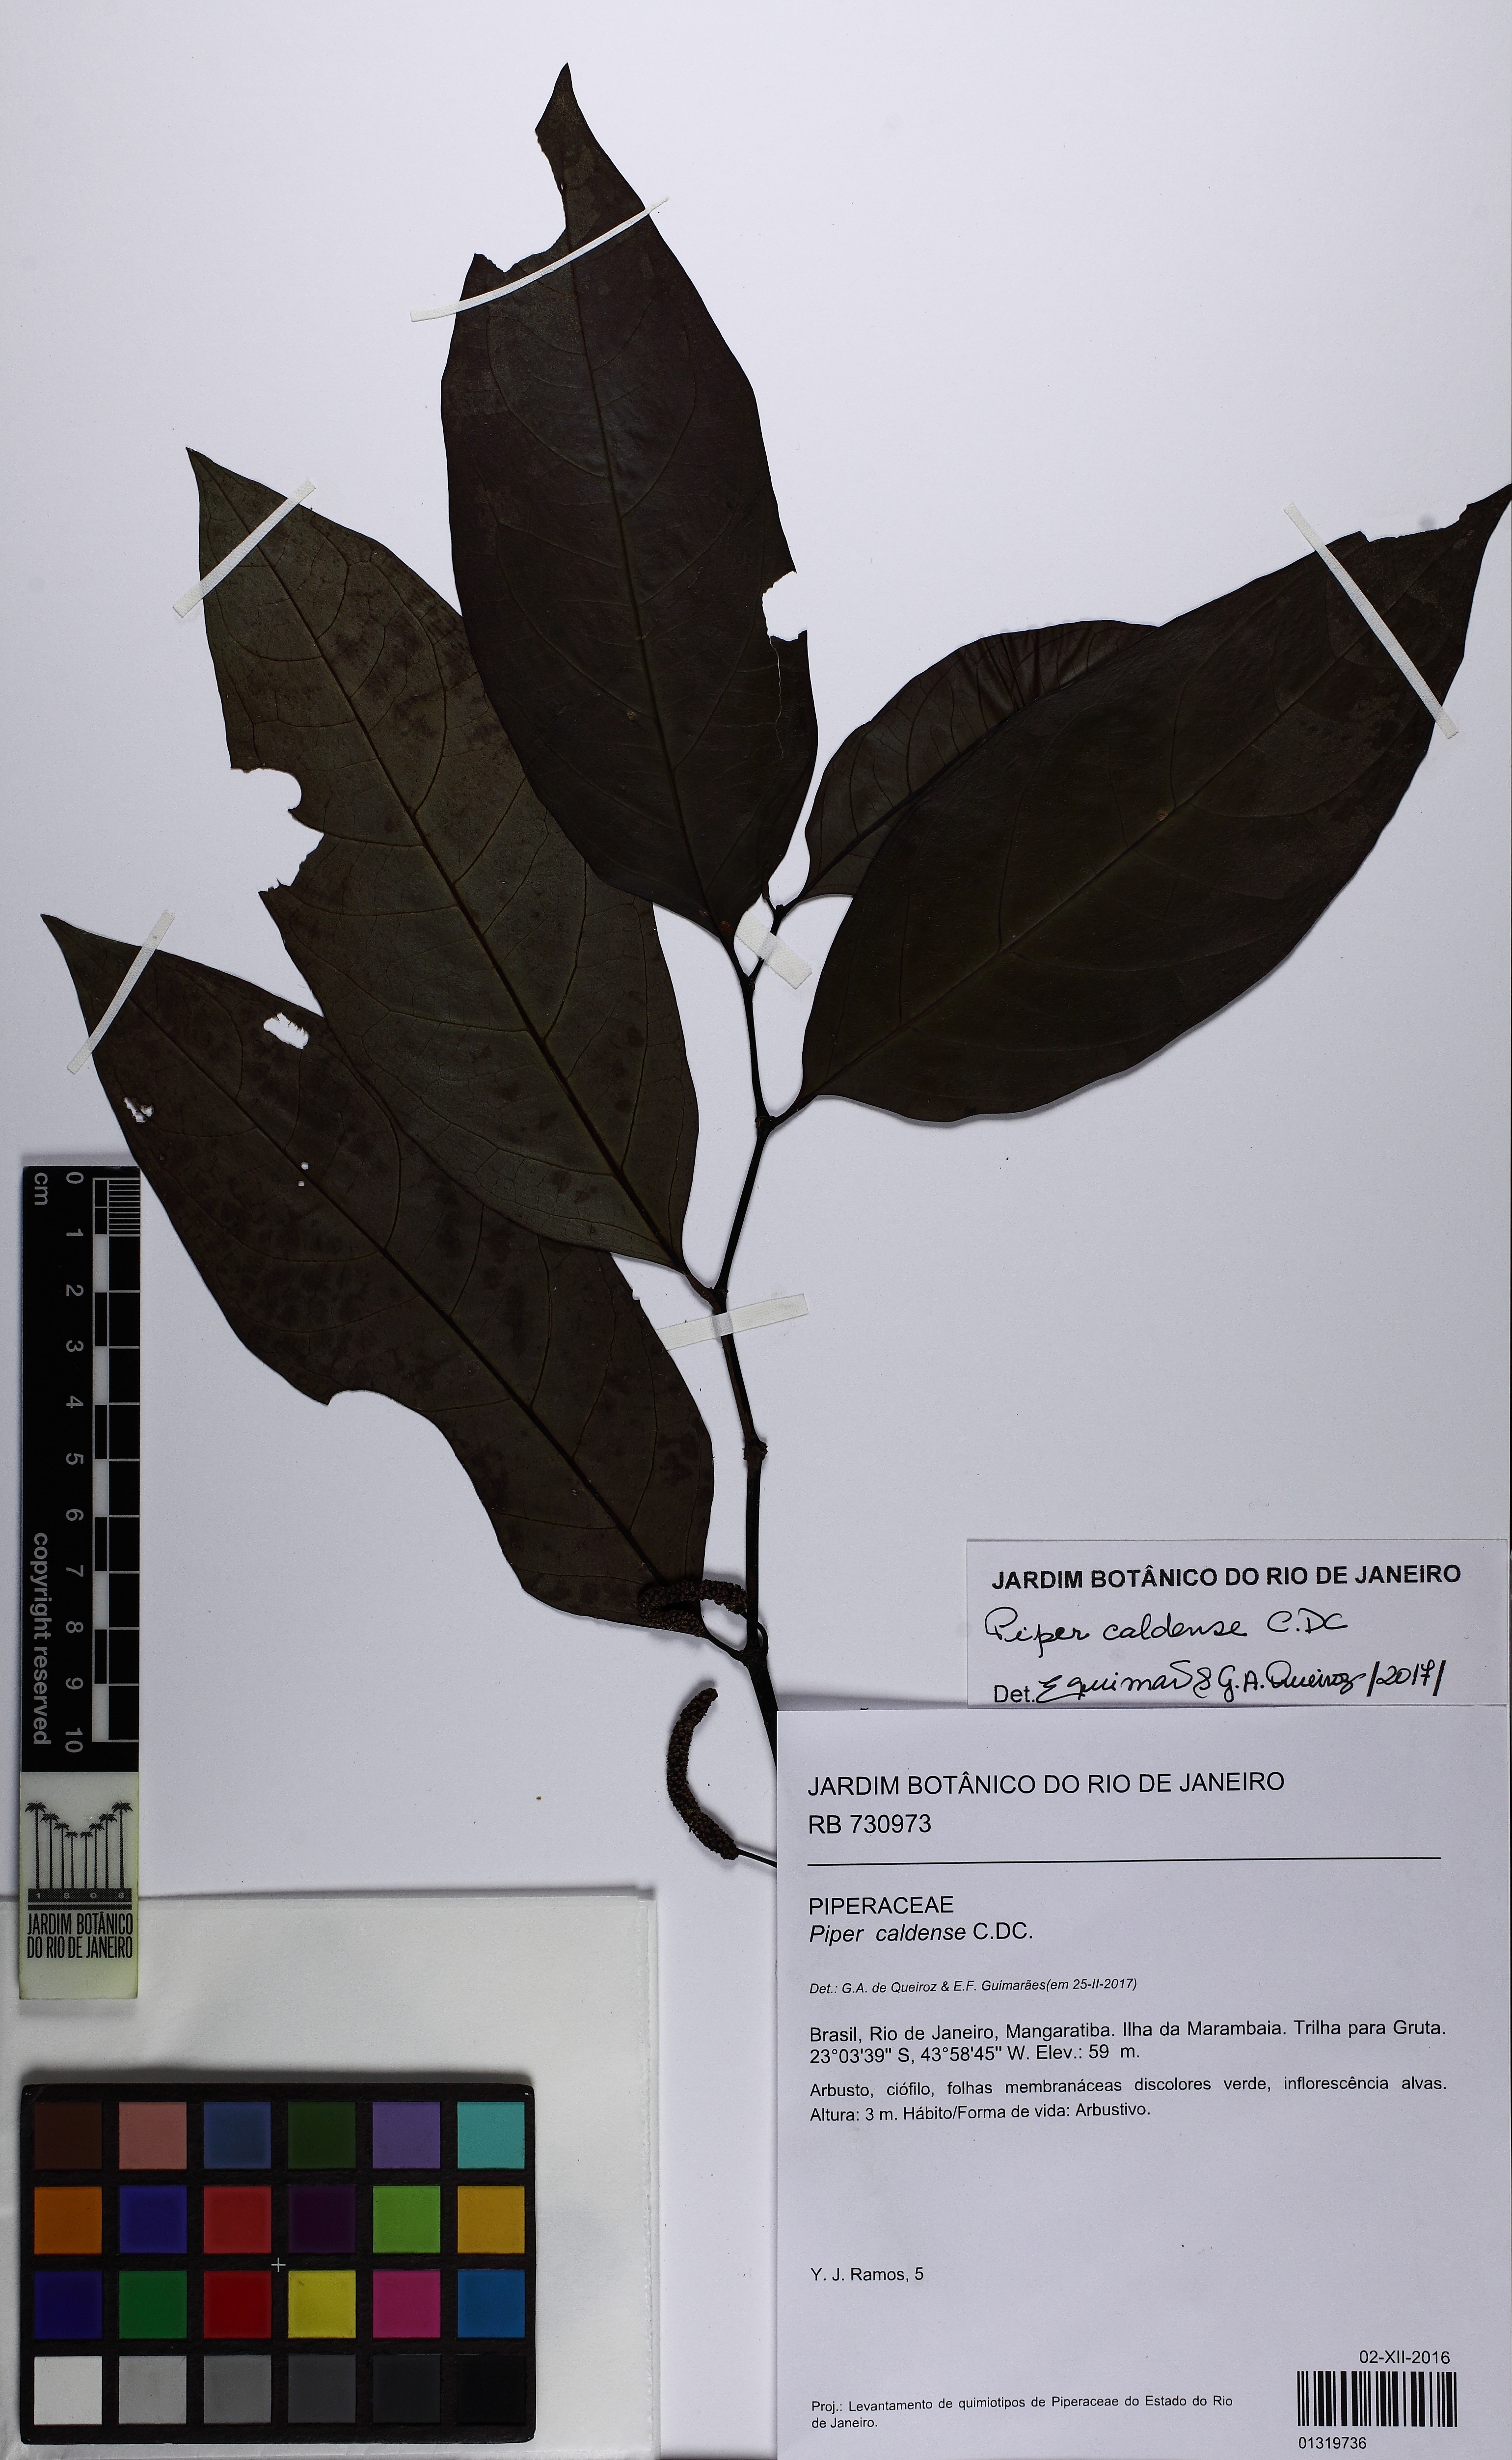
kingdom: Plantae
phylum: Tracheophyta
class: Magnoliopsida
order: Piperales
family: Piperaceae
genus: Piper
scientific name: Piper caldense
